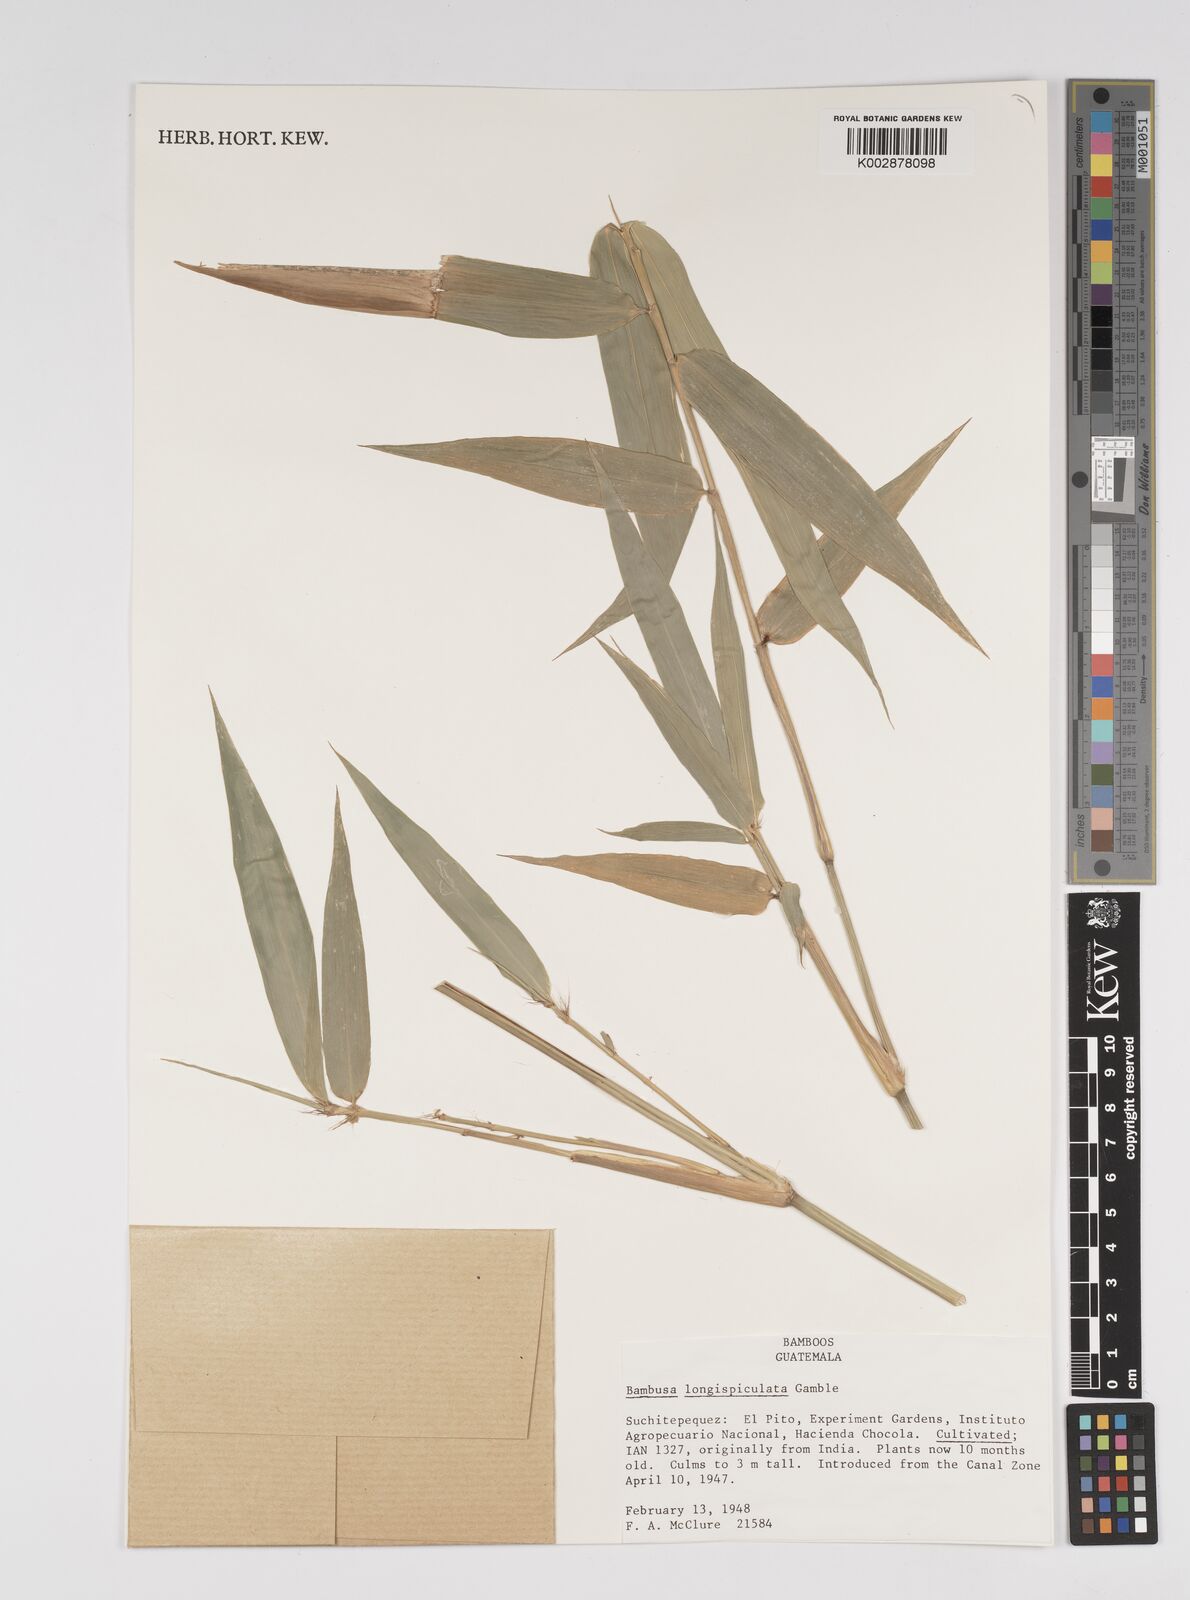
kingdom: Plantae
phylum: Tracheophyta
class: Liliopsida
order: Poales
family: Poaceae
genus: Bambusa
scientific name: Bambusa longispiculata
